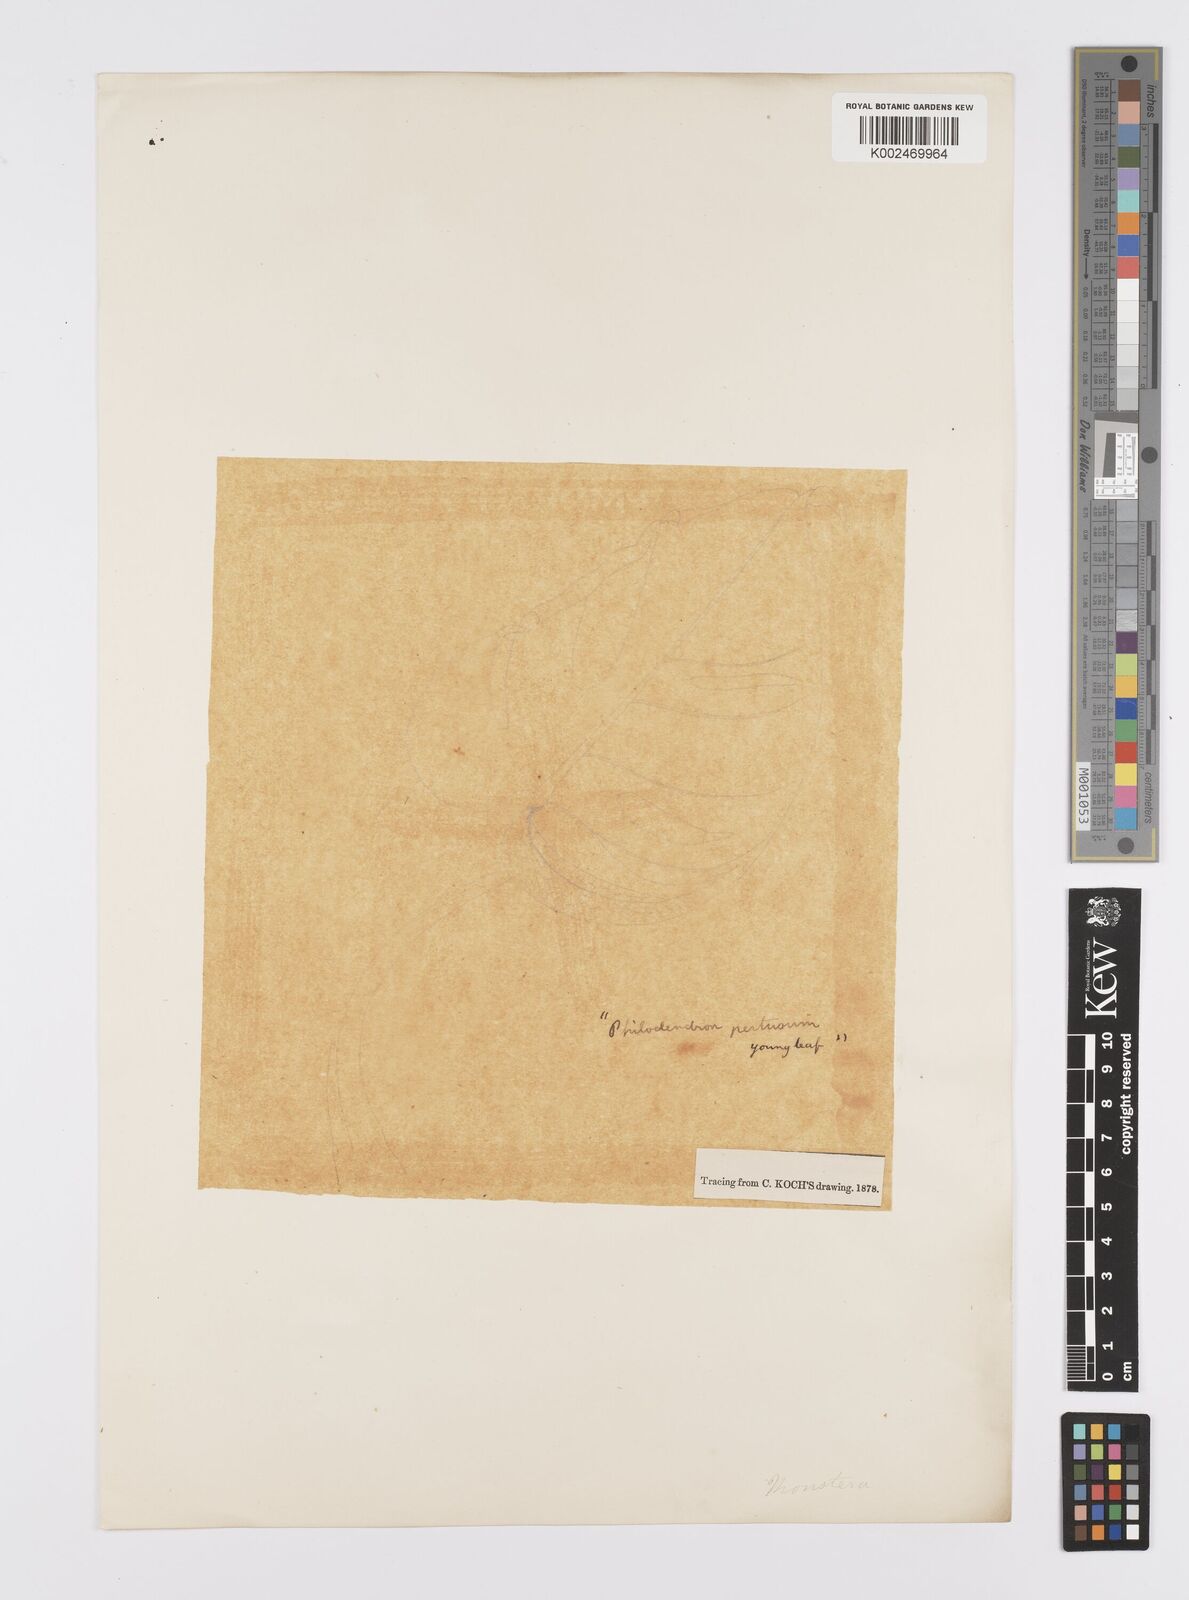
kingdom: Plantae
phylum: Tracheophyta
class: Liliopsida
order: Alismatales
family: Araceae
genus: Monstera
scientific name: Monstera adansonii
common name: Tarovine
